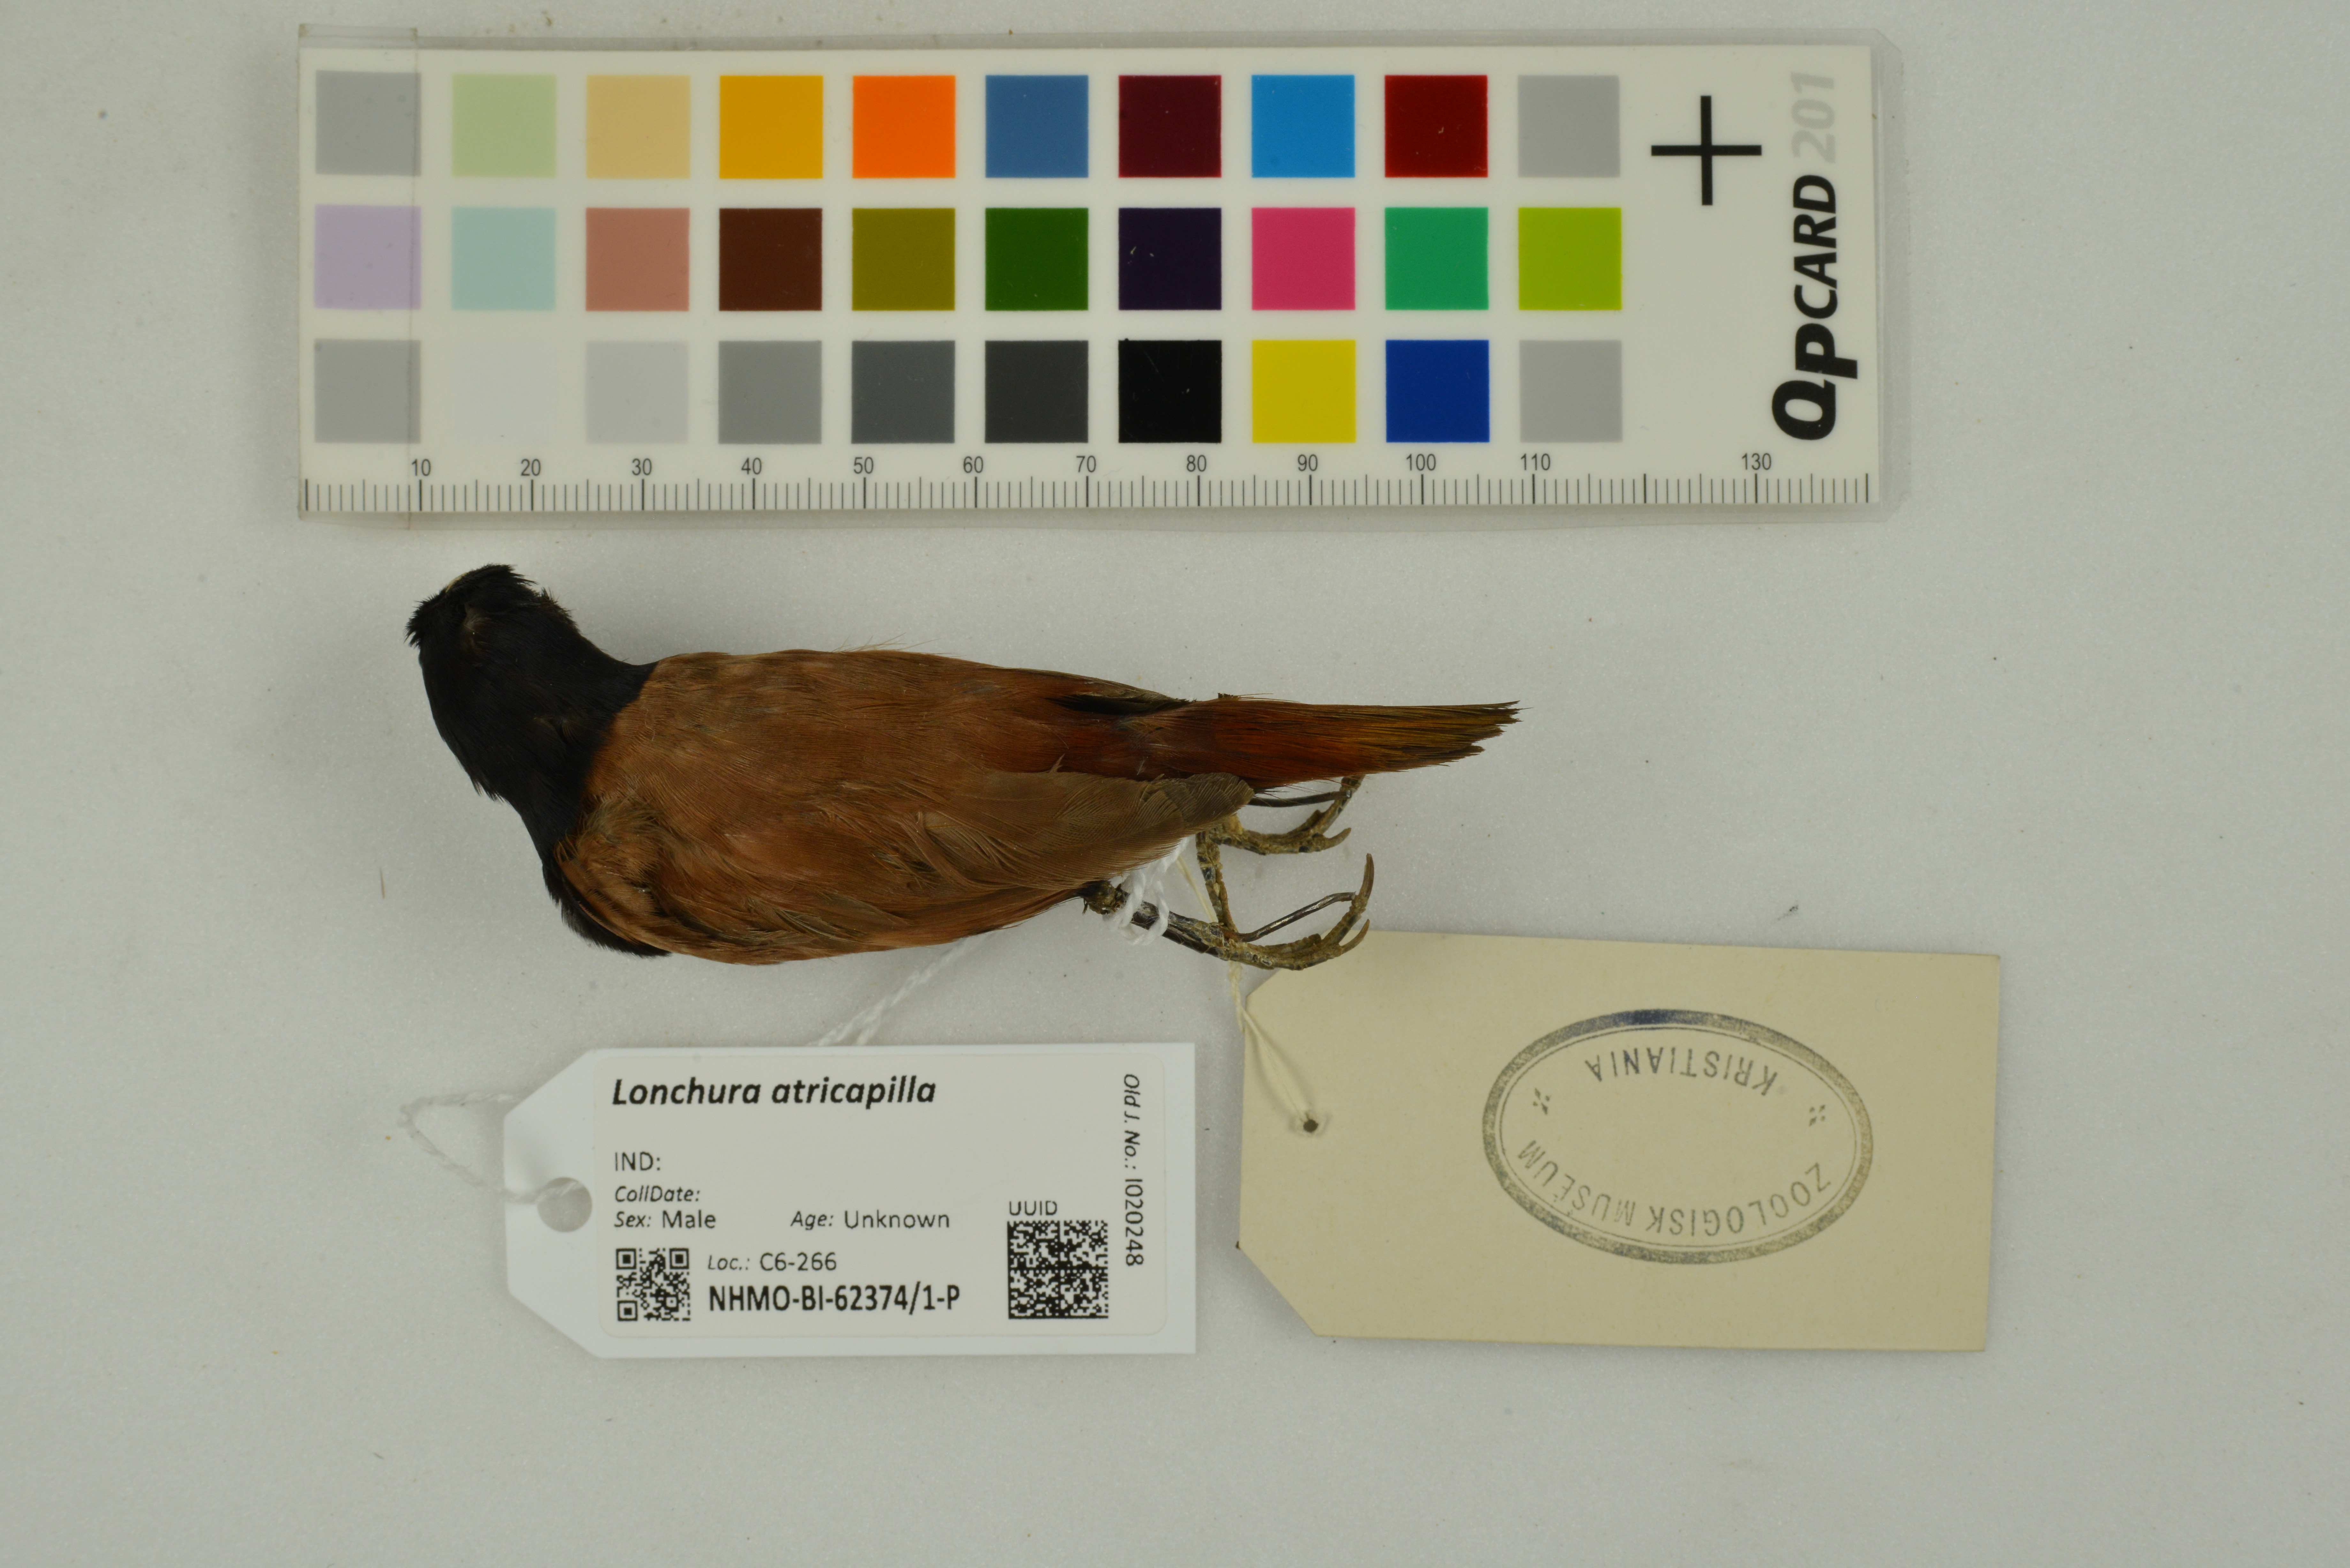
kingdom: Animalia
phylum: Chordata
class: Aves
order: Passeriformes
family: Estrildidae
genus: Lonchura
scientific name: Lonchura atricapilla
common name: Chestnut munia
